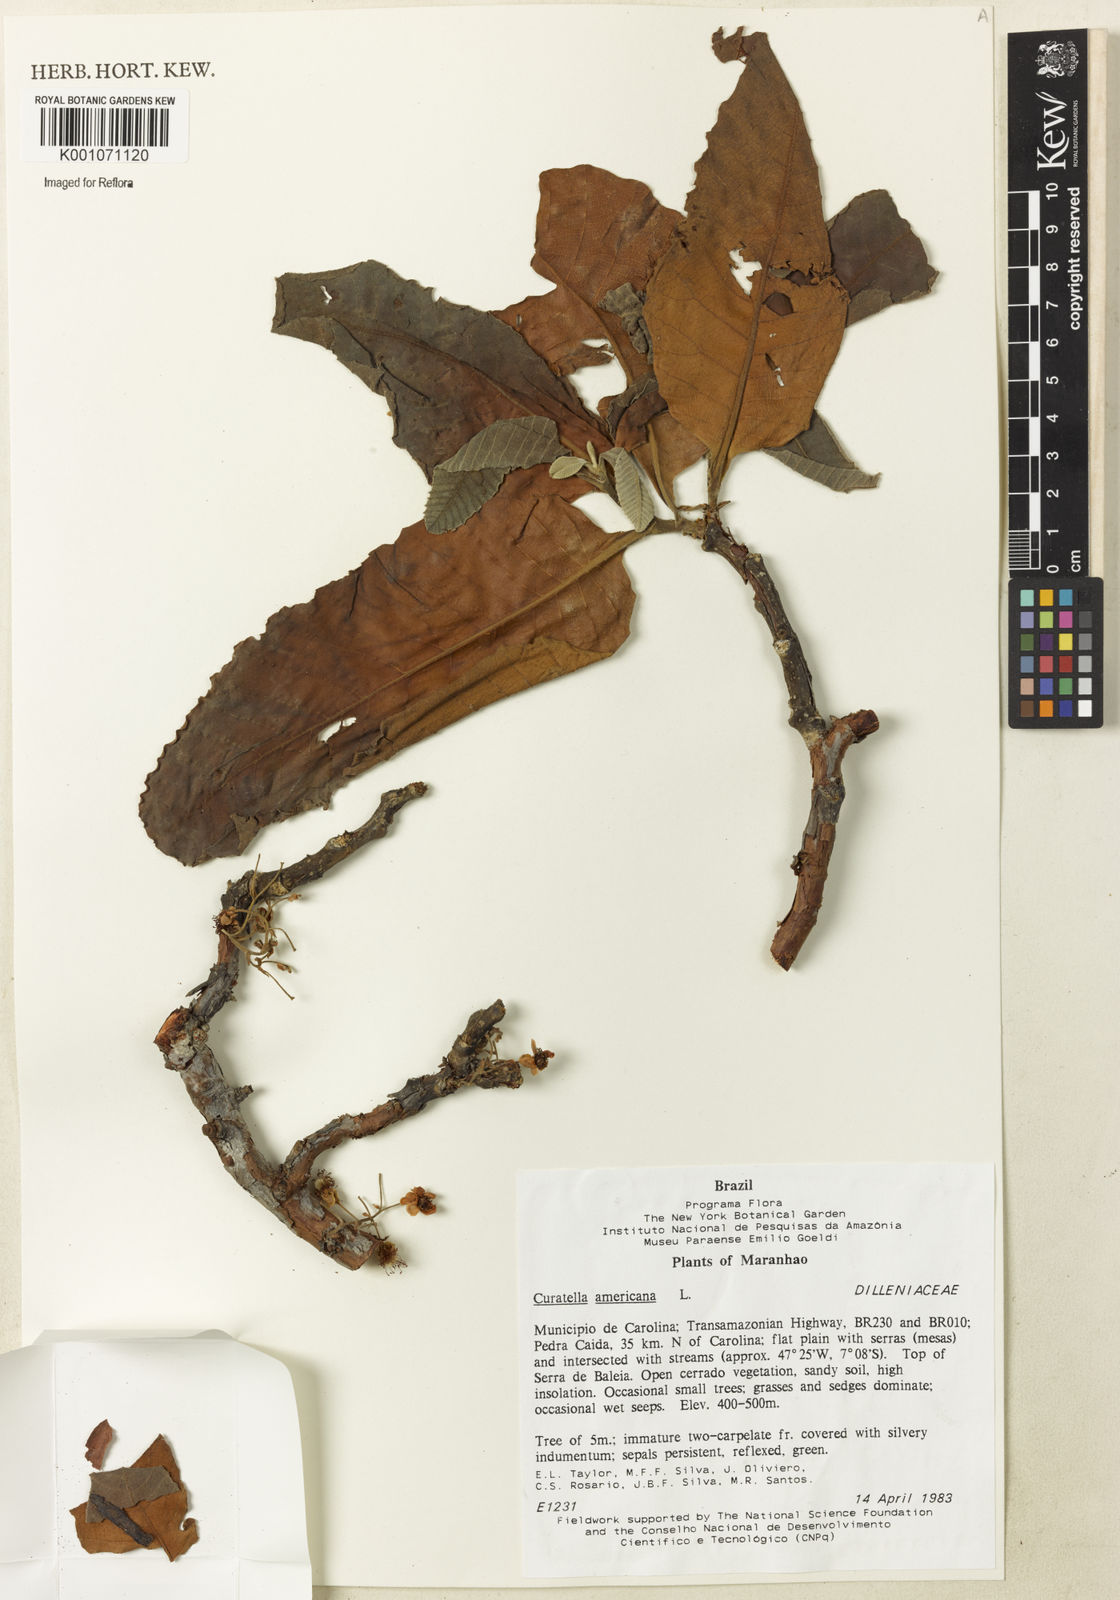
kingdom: Plantae
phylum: Tracheophyta
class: Magnoliopsida
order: Dilleniales
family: Dilleniaceae
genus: Curatella
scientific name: Curatella americana
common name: Sandpaper tree
